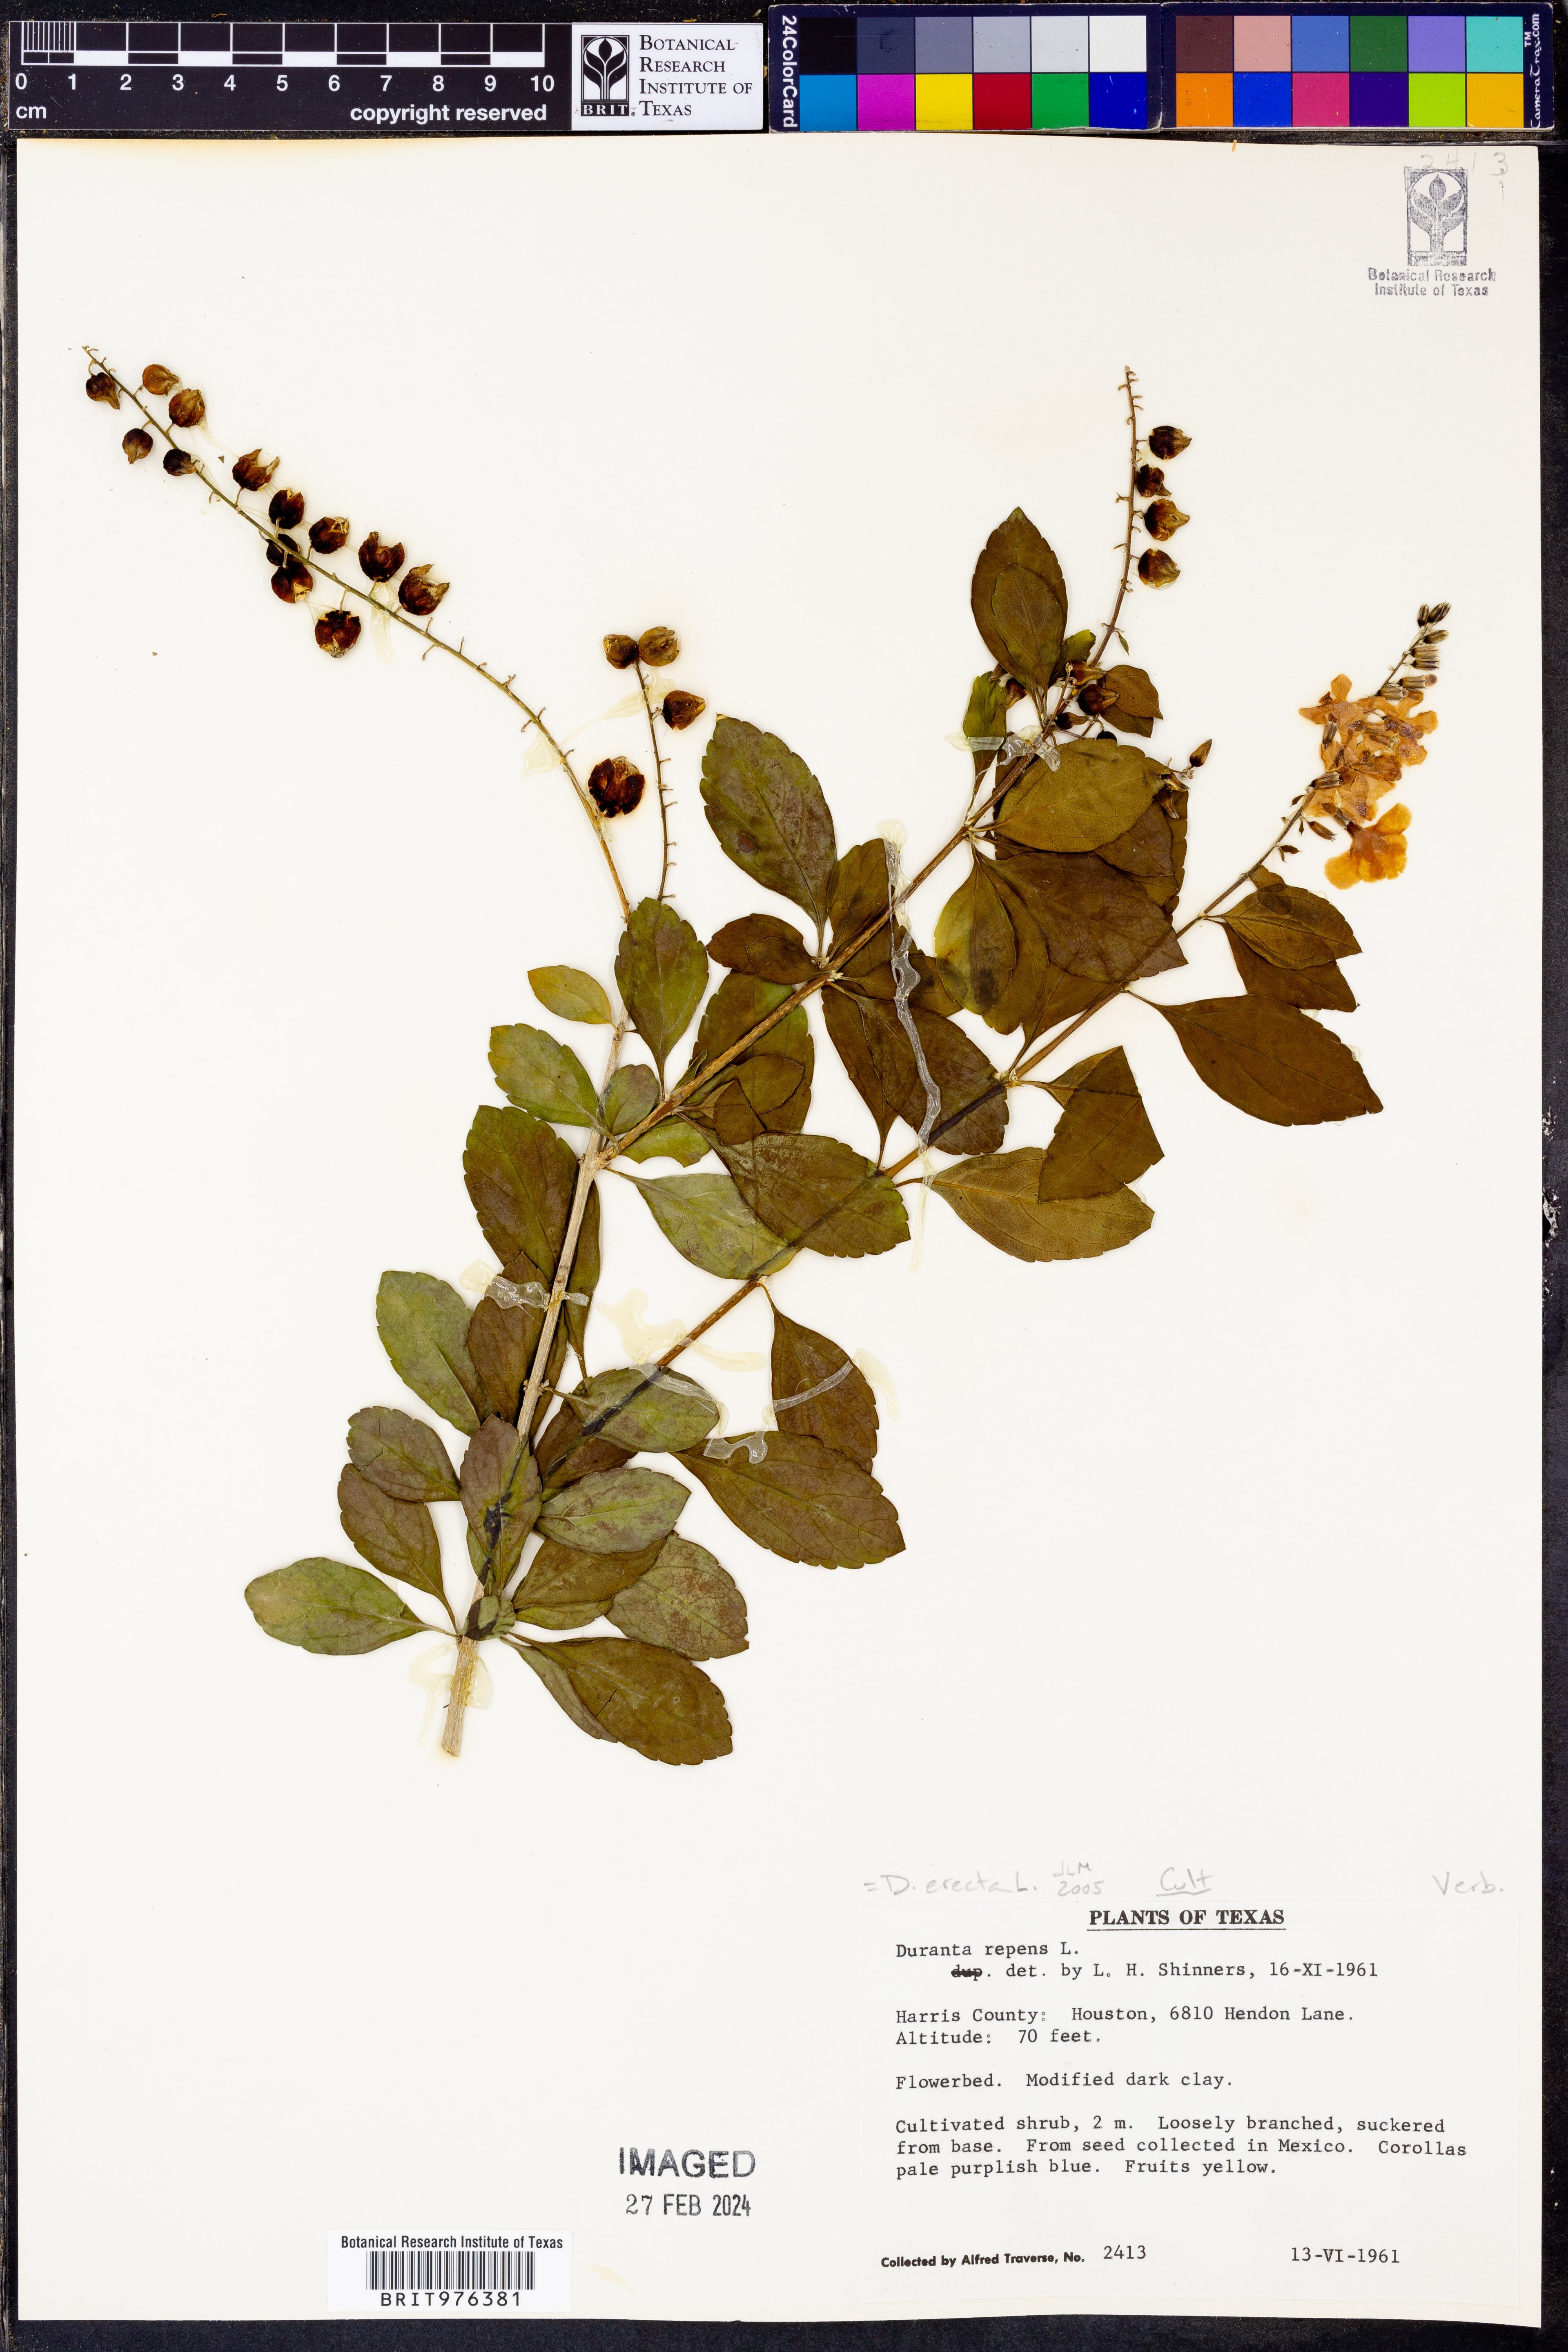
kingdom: Plantae
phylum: Tracheophyta
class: Magnoliopsida
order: Lamiales
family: Verbenaceae
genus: Duranta
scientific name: Duranta
